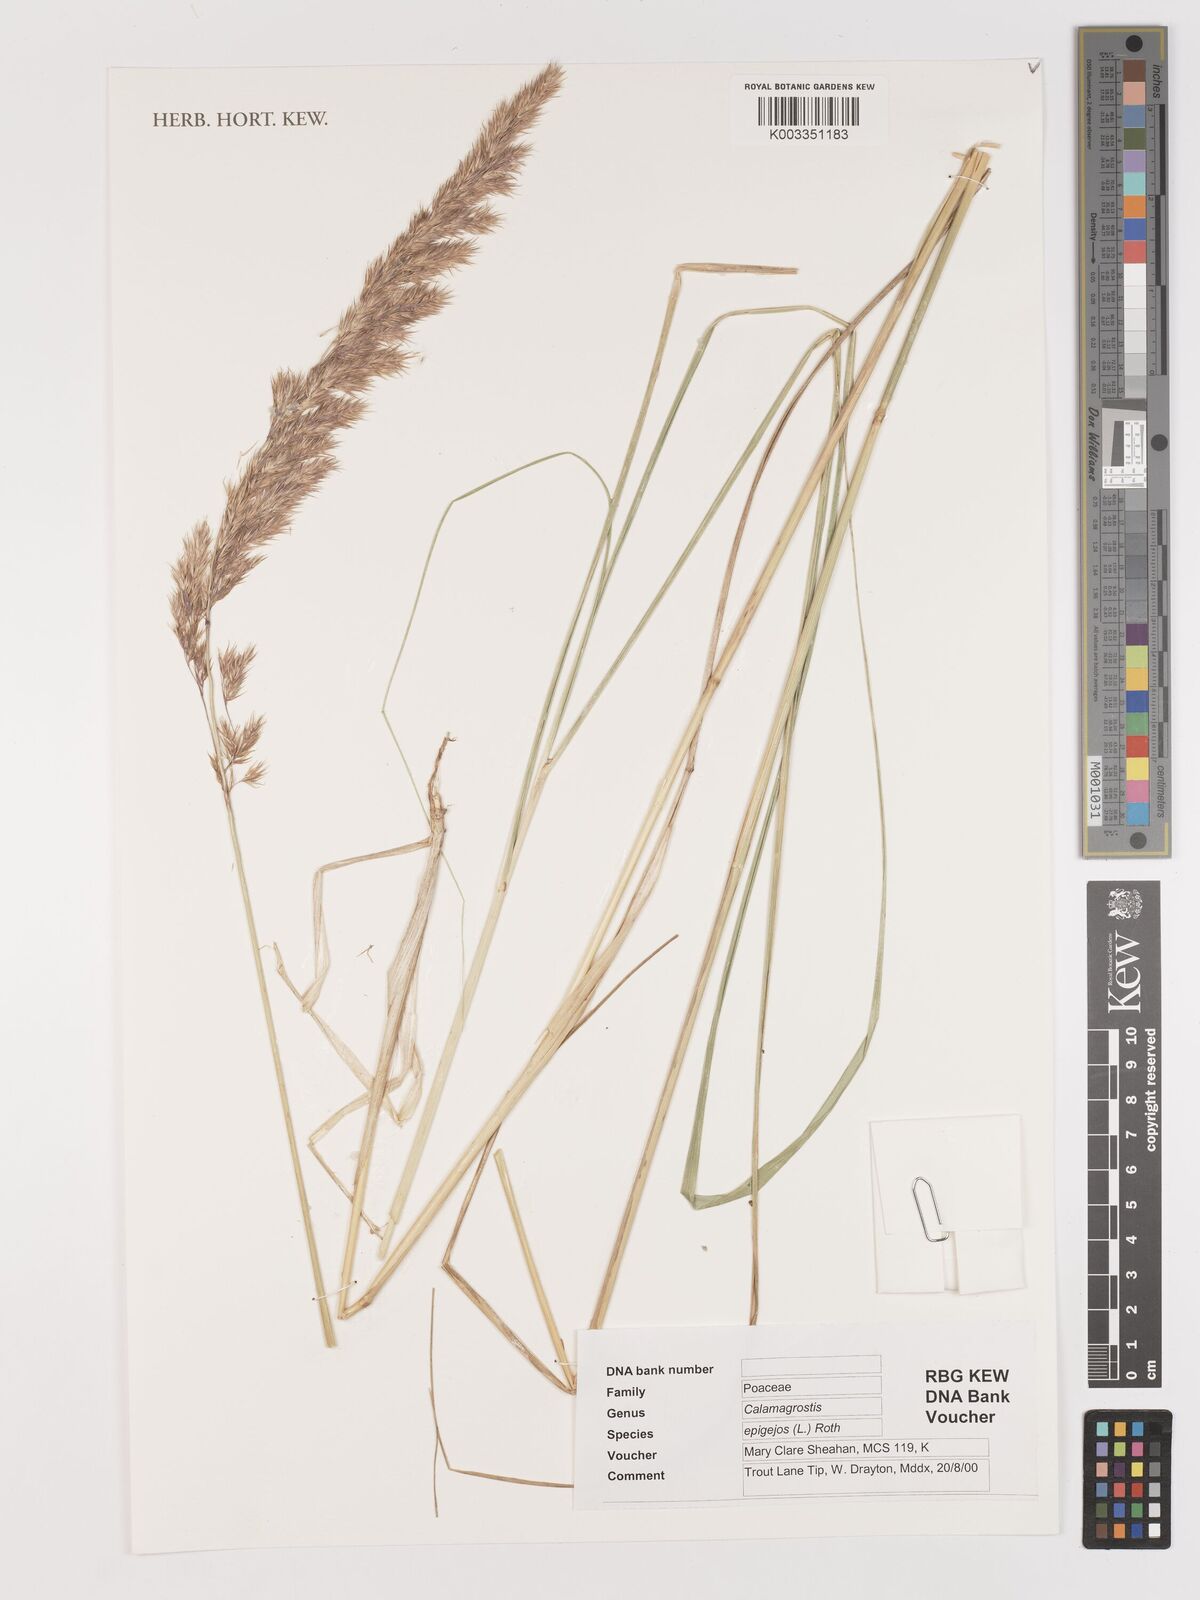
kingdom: Plantae
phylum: Tracheophyta
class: Liliopsida
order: Poales
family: Poaceae
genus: Calamagrostis
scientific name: Calamagrostis
